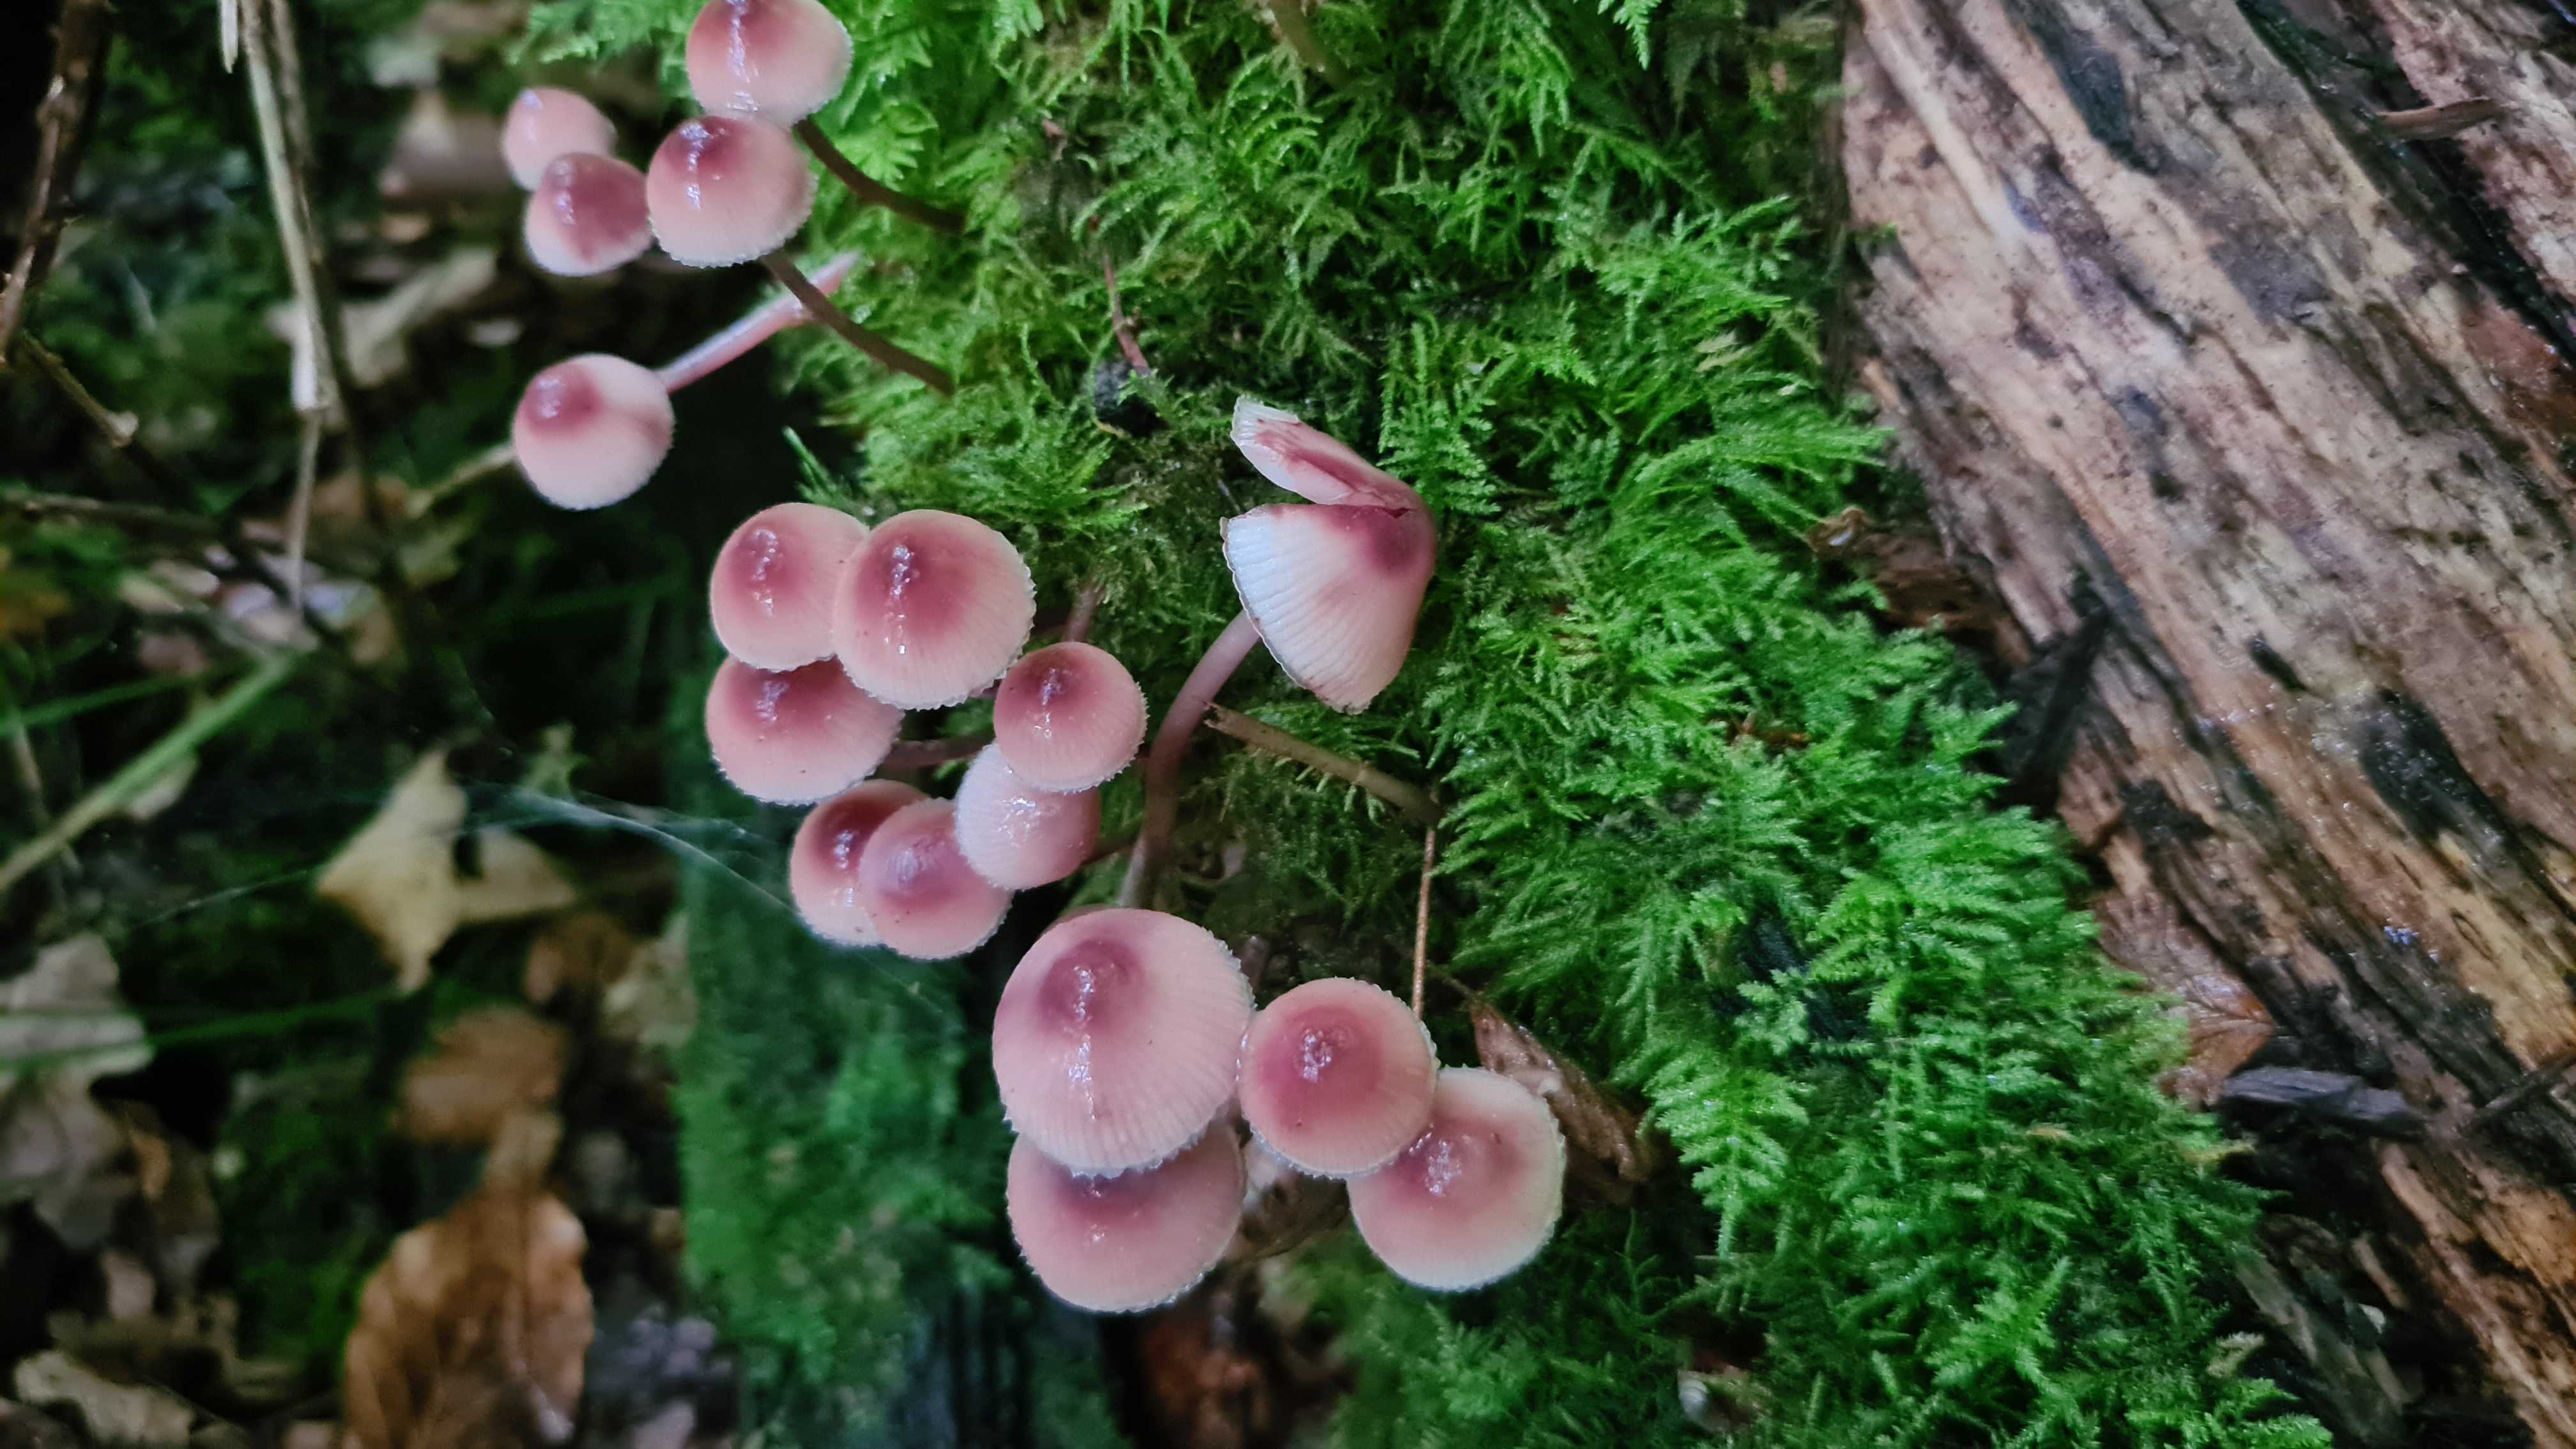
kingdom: Fungi
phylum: Basidiomycota
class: Agaricomycetes
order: Agaricales
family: Mycenaceae
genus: Mycena
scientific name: Mycena haematopus
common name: blødende huesvamp
